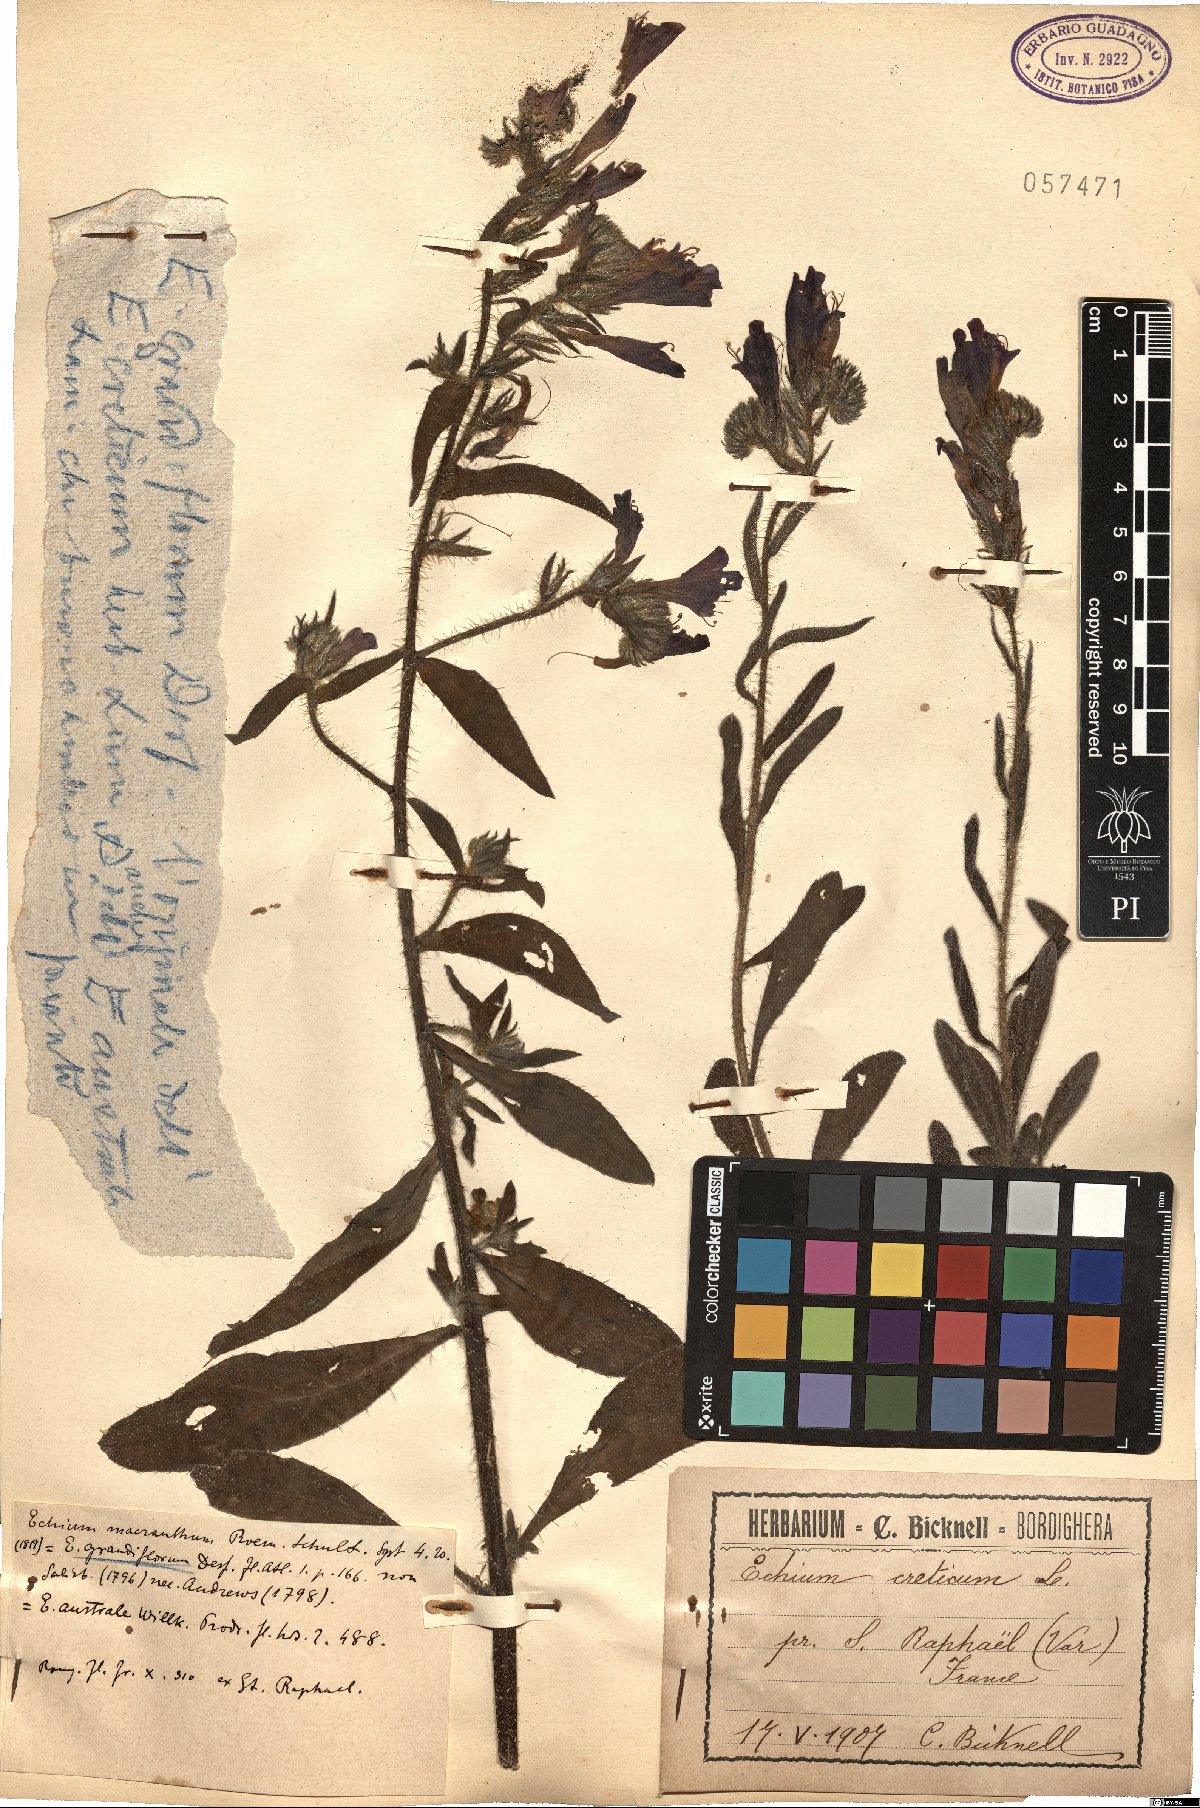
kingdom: Plantae
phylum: Tracheophyta
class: Magnoliopsida
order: Boraginales
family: Boraginaceae
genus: Echium
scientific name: Echium creticum
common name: Cretan viper's bugloss
